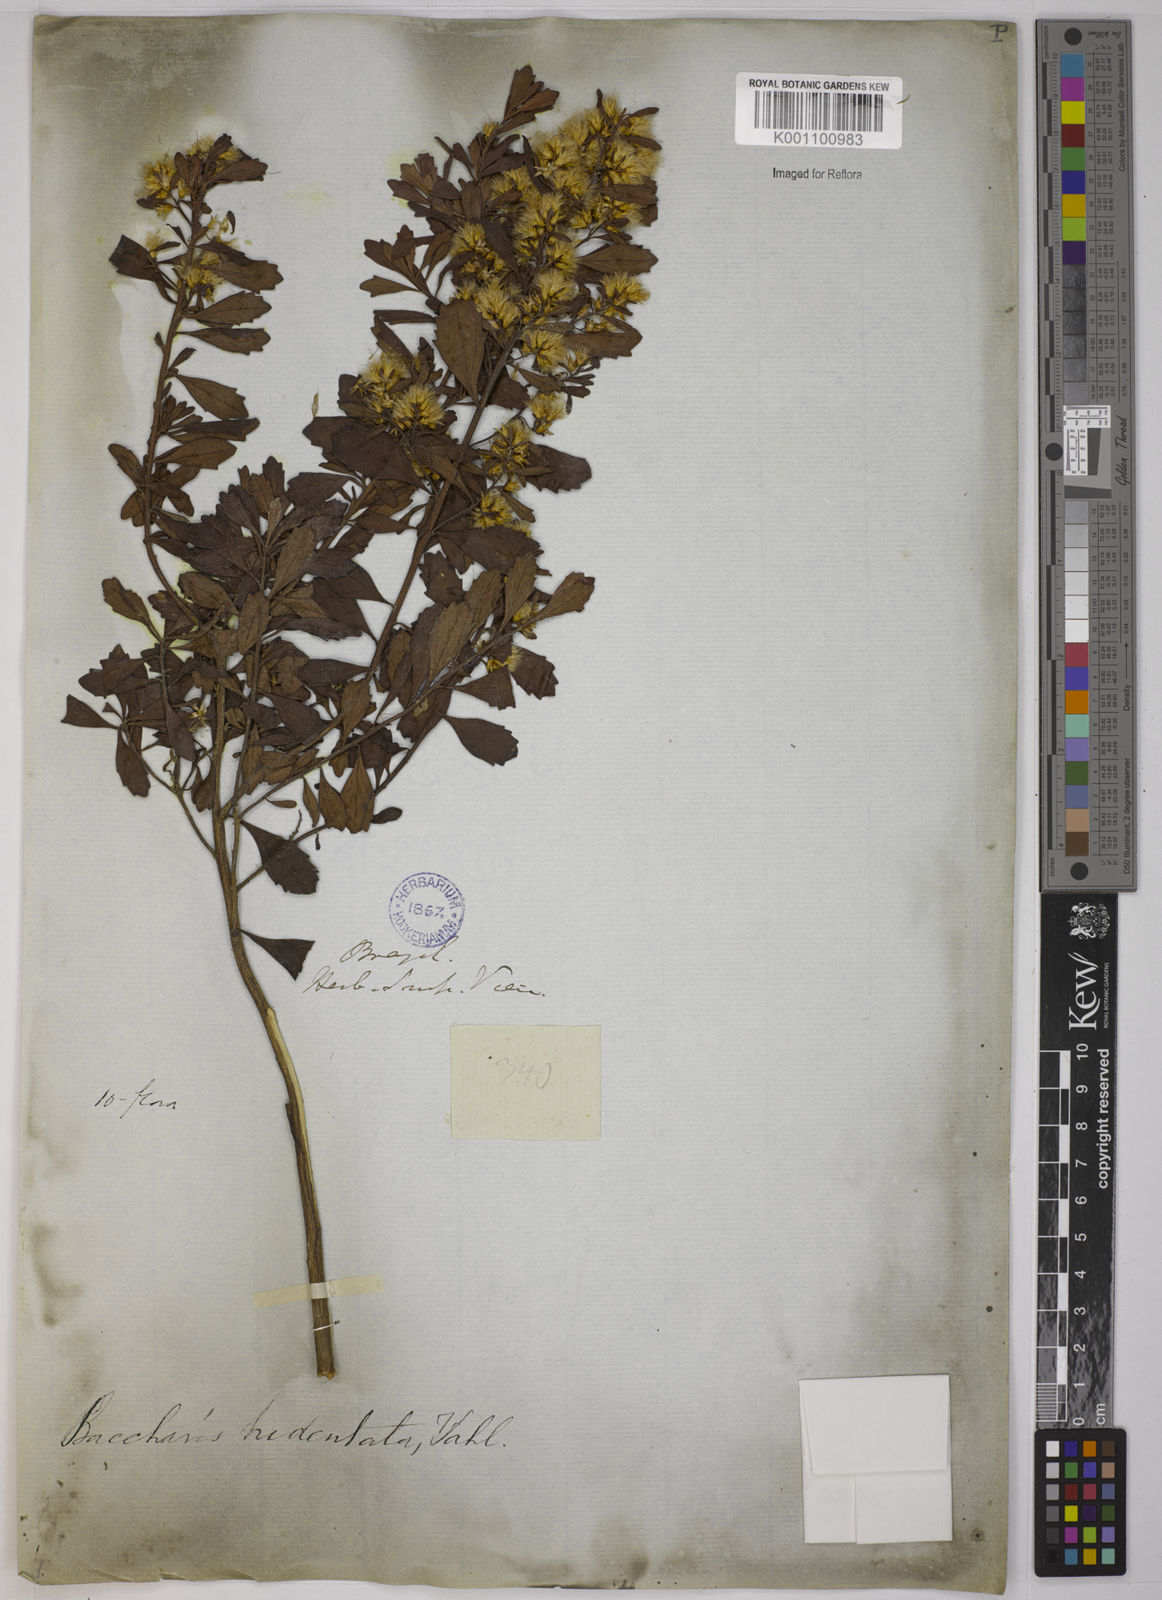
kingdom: Plantae
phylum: Tracheophyta
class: Magnoliopsida
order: Asterales
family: Asteraceae
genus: Baccharis
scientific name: Baccharis tridentata
